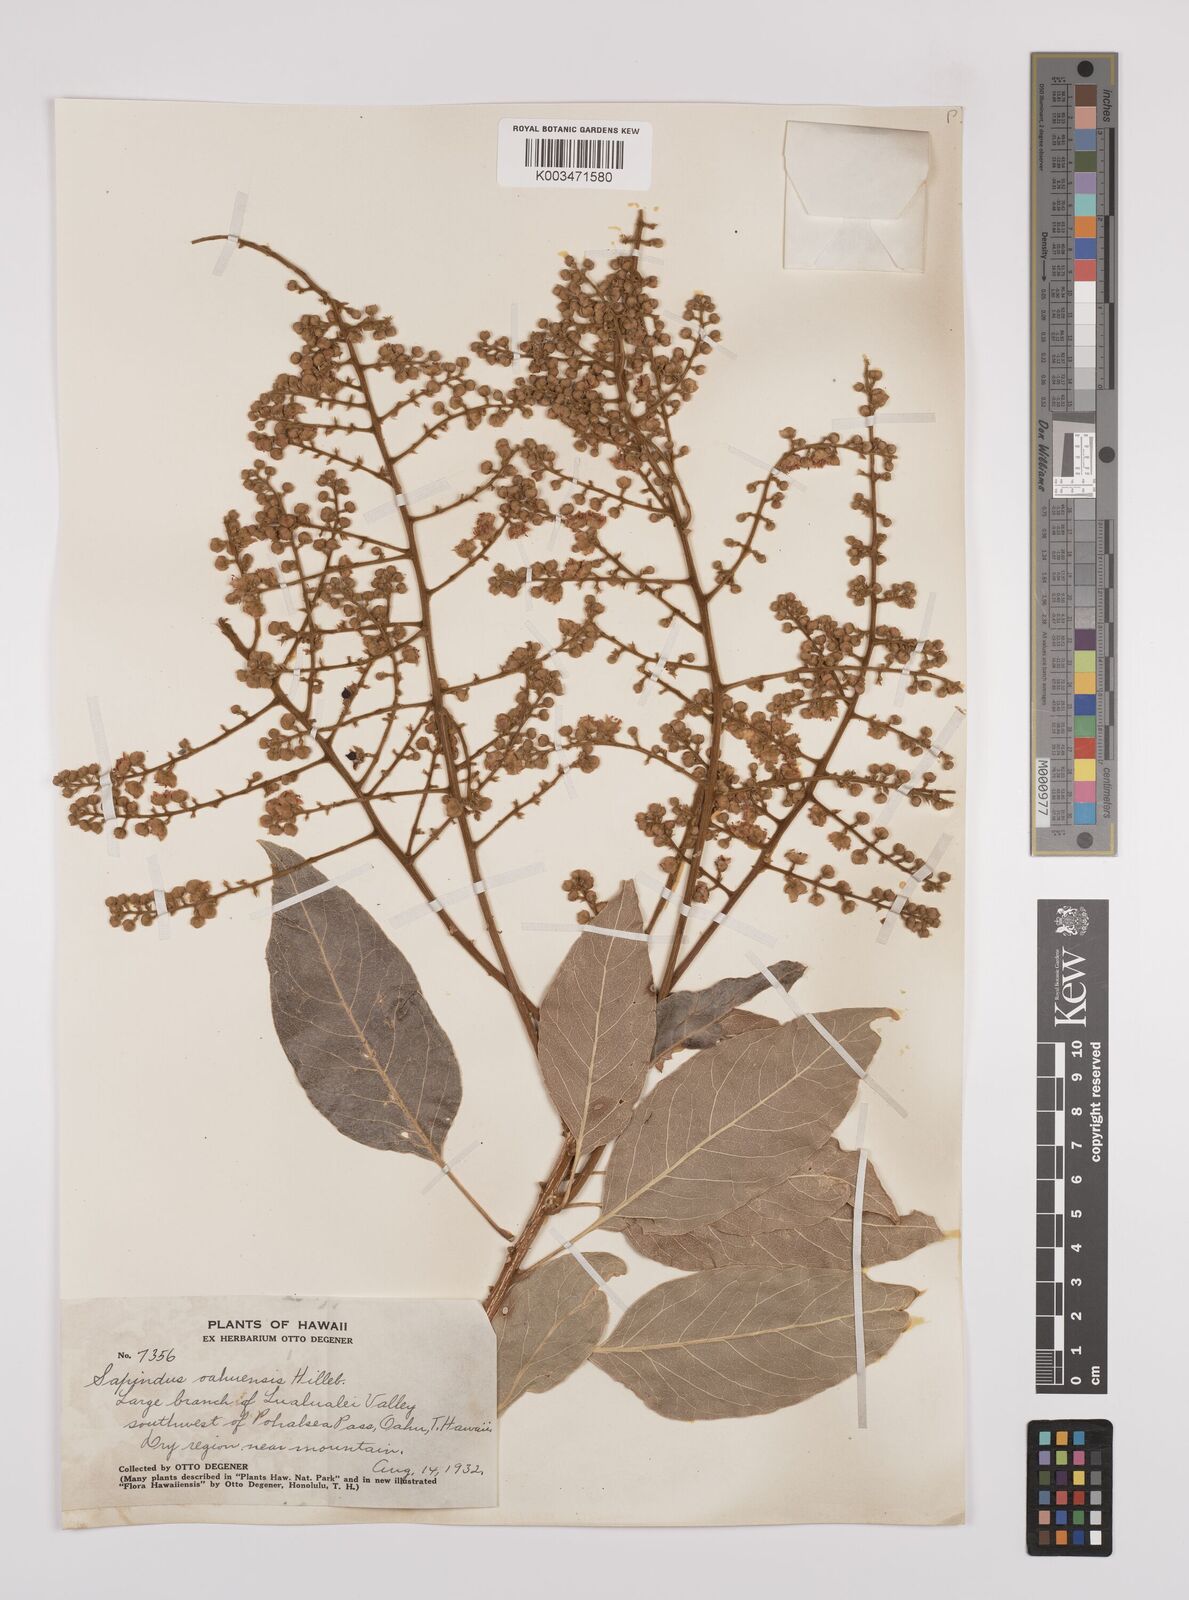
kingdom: Plantae
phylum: Tracheophyta
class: Magnoliopsida
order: Sapindales
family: Sapindaceae
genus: Sapindus
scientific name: Sapindus oahuensis
